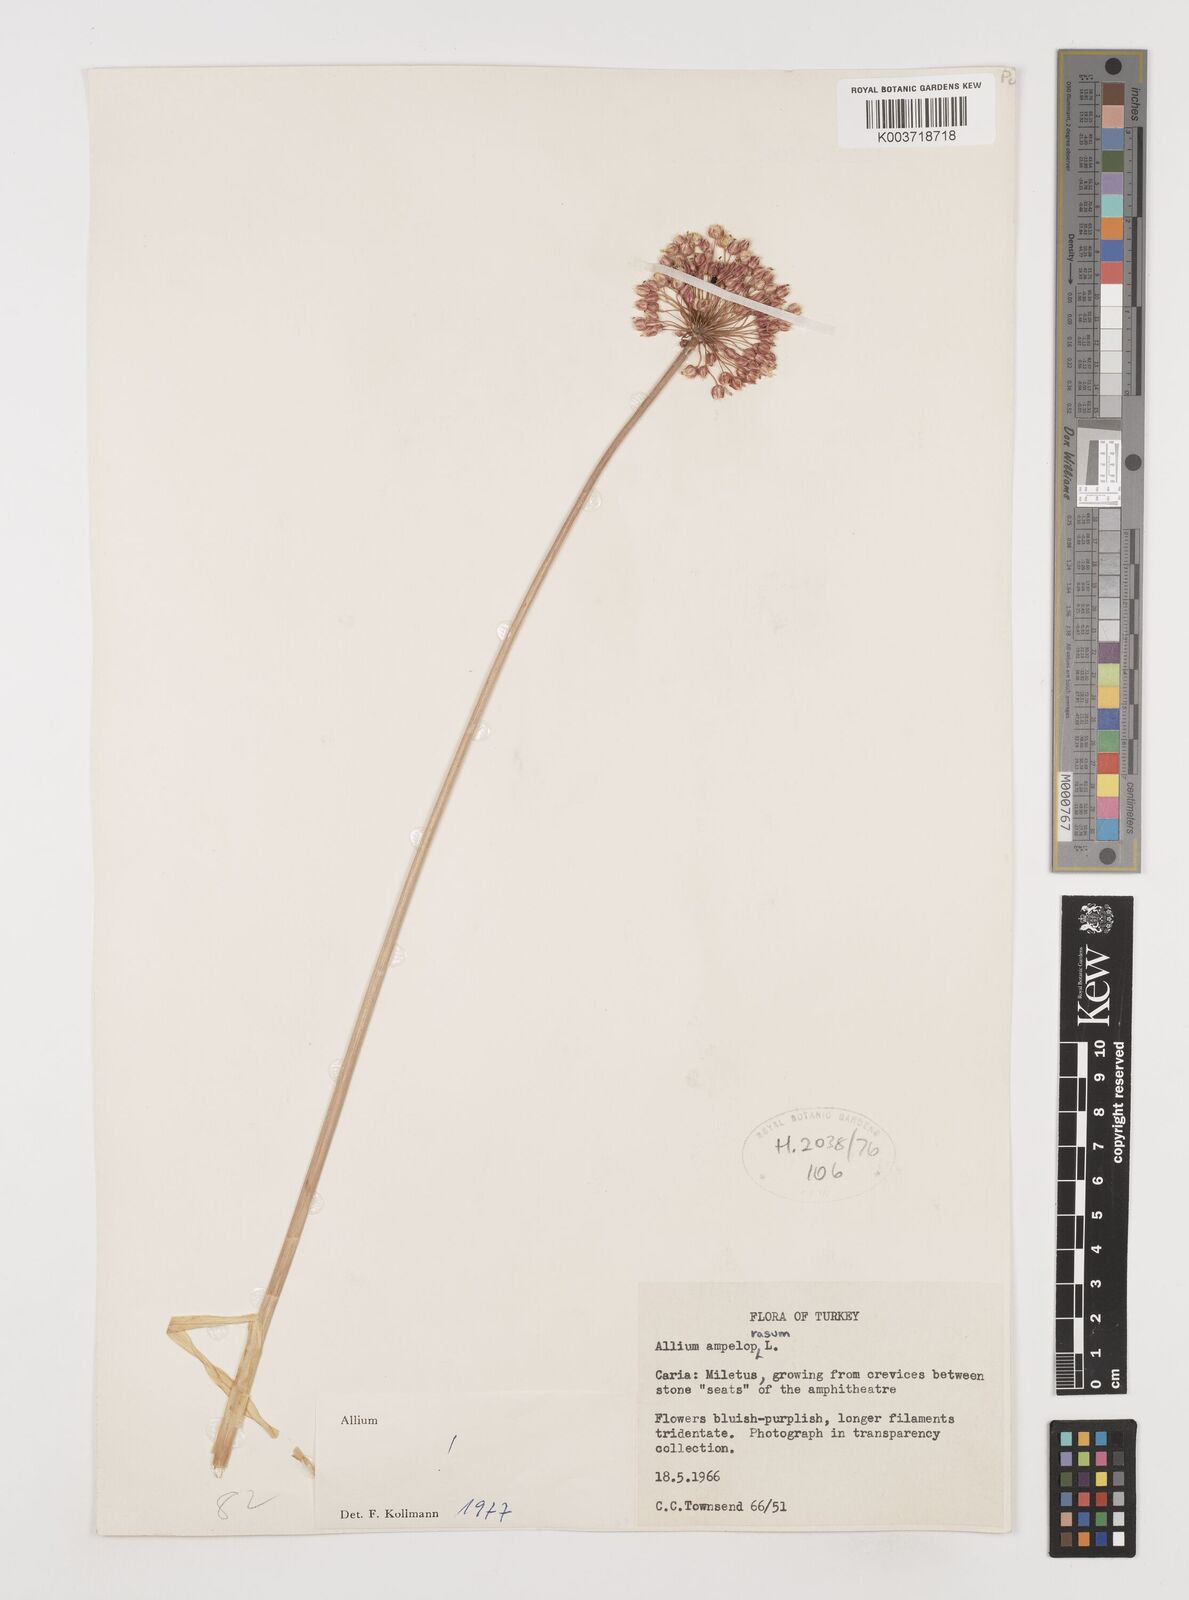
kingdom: Plantae
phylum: Tracheophyta
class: Liliopsida
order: Asparagales
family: Amaryllidaceae
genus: Allium
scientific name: Allium ampeloprasum
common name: Wild leek
